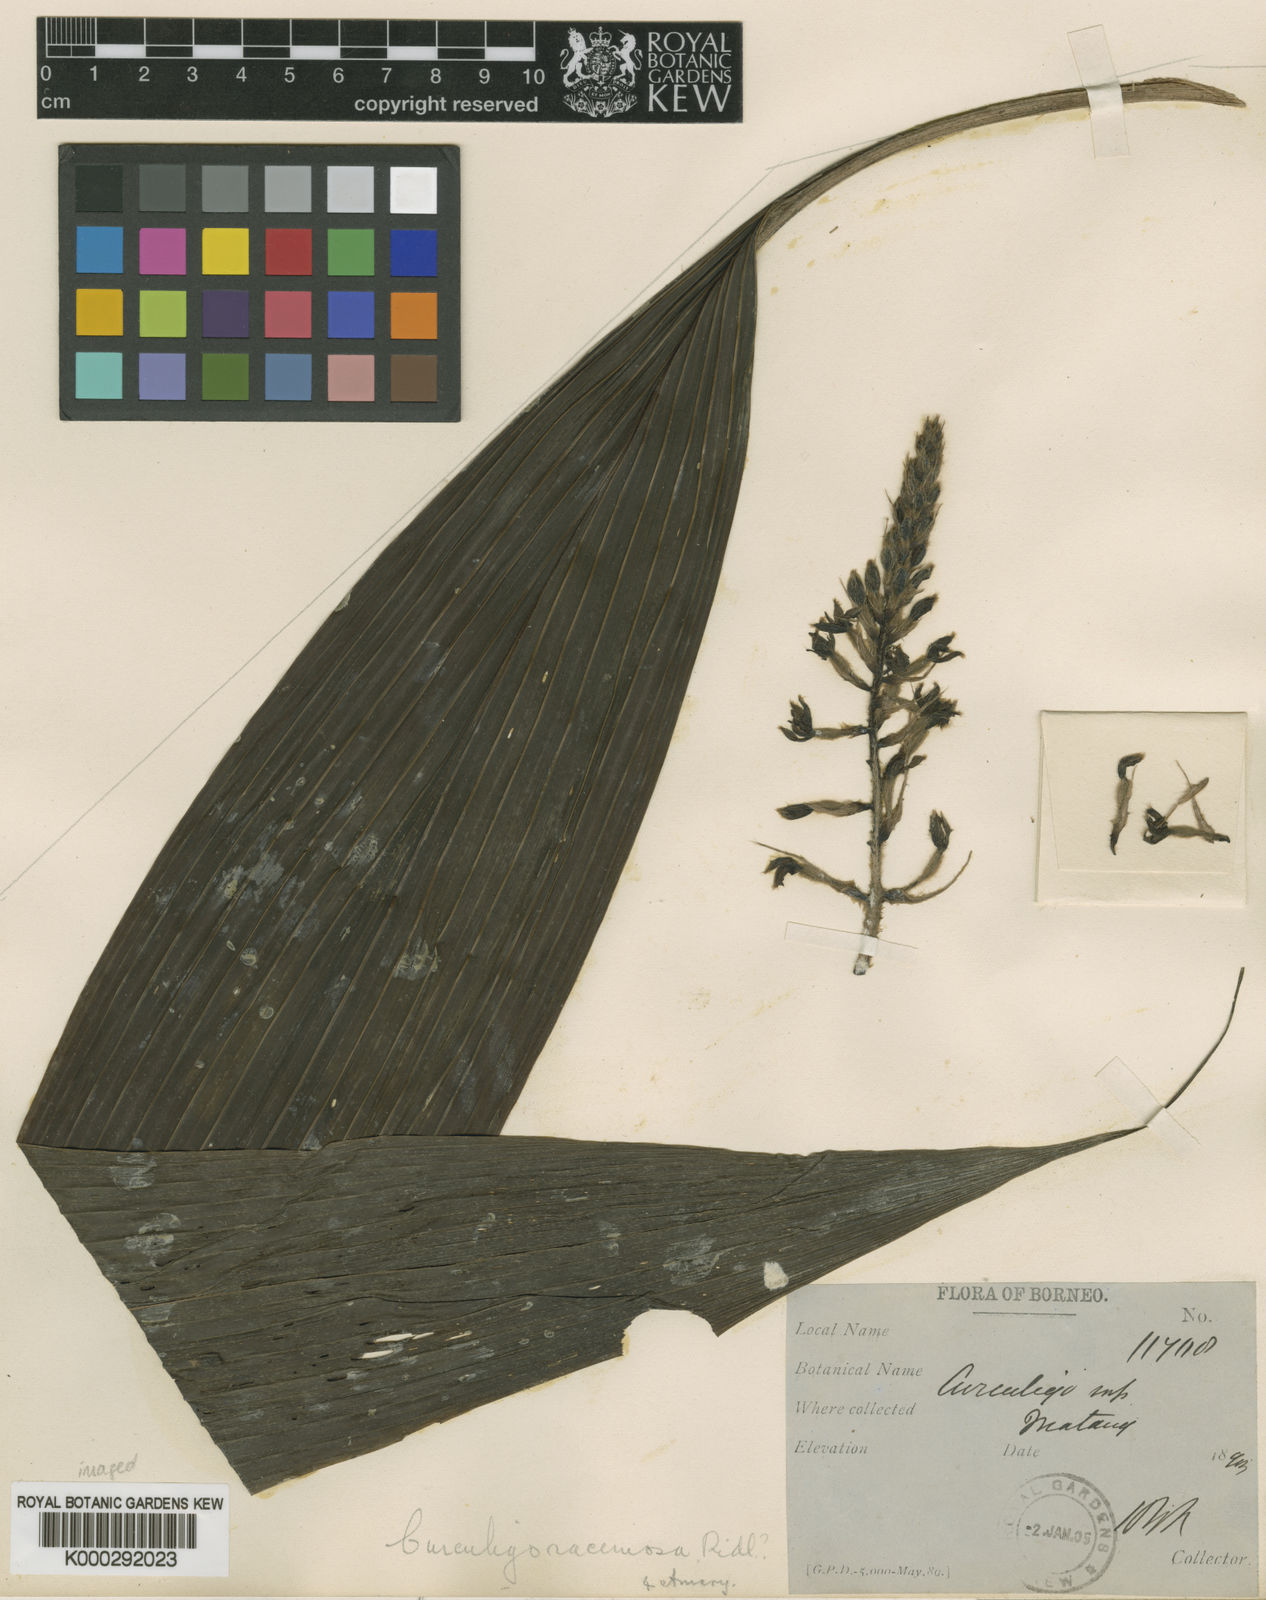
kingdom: Plantae
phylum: Tracheophyta
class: Liliopsida
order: Asparagales
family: Hypoxidaceae
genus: Curculigo
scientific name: Curculigo racemosa
